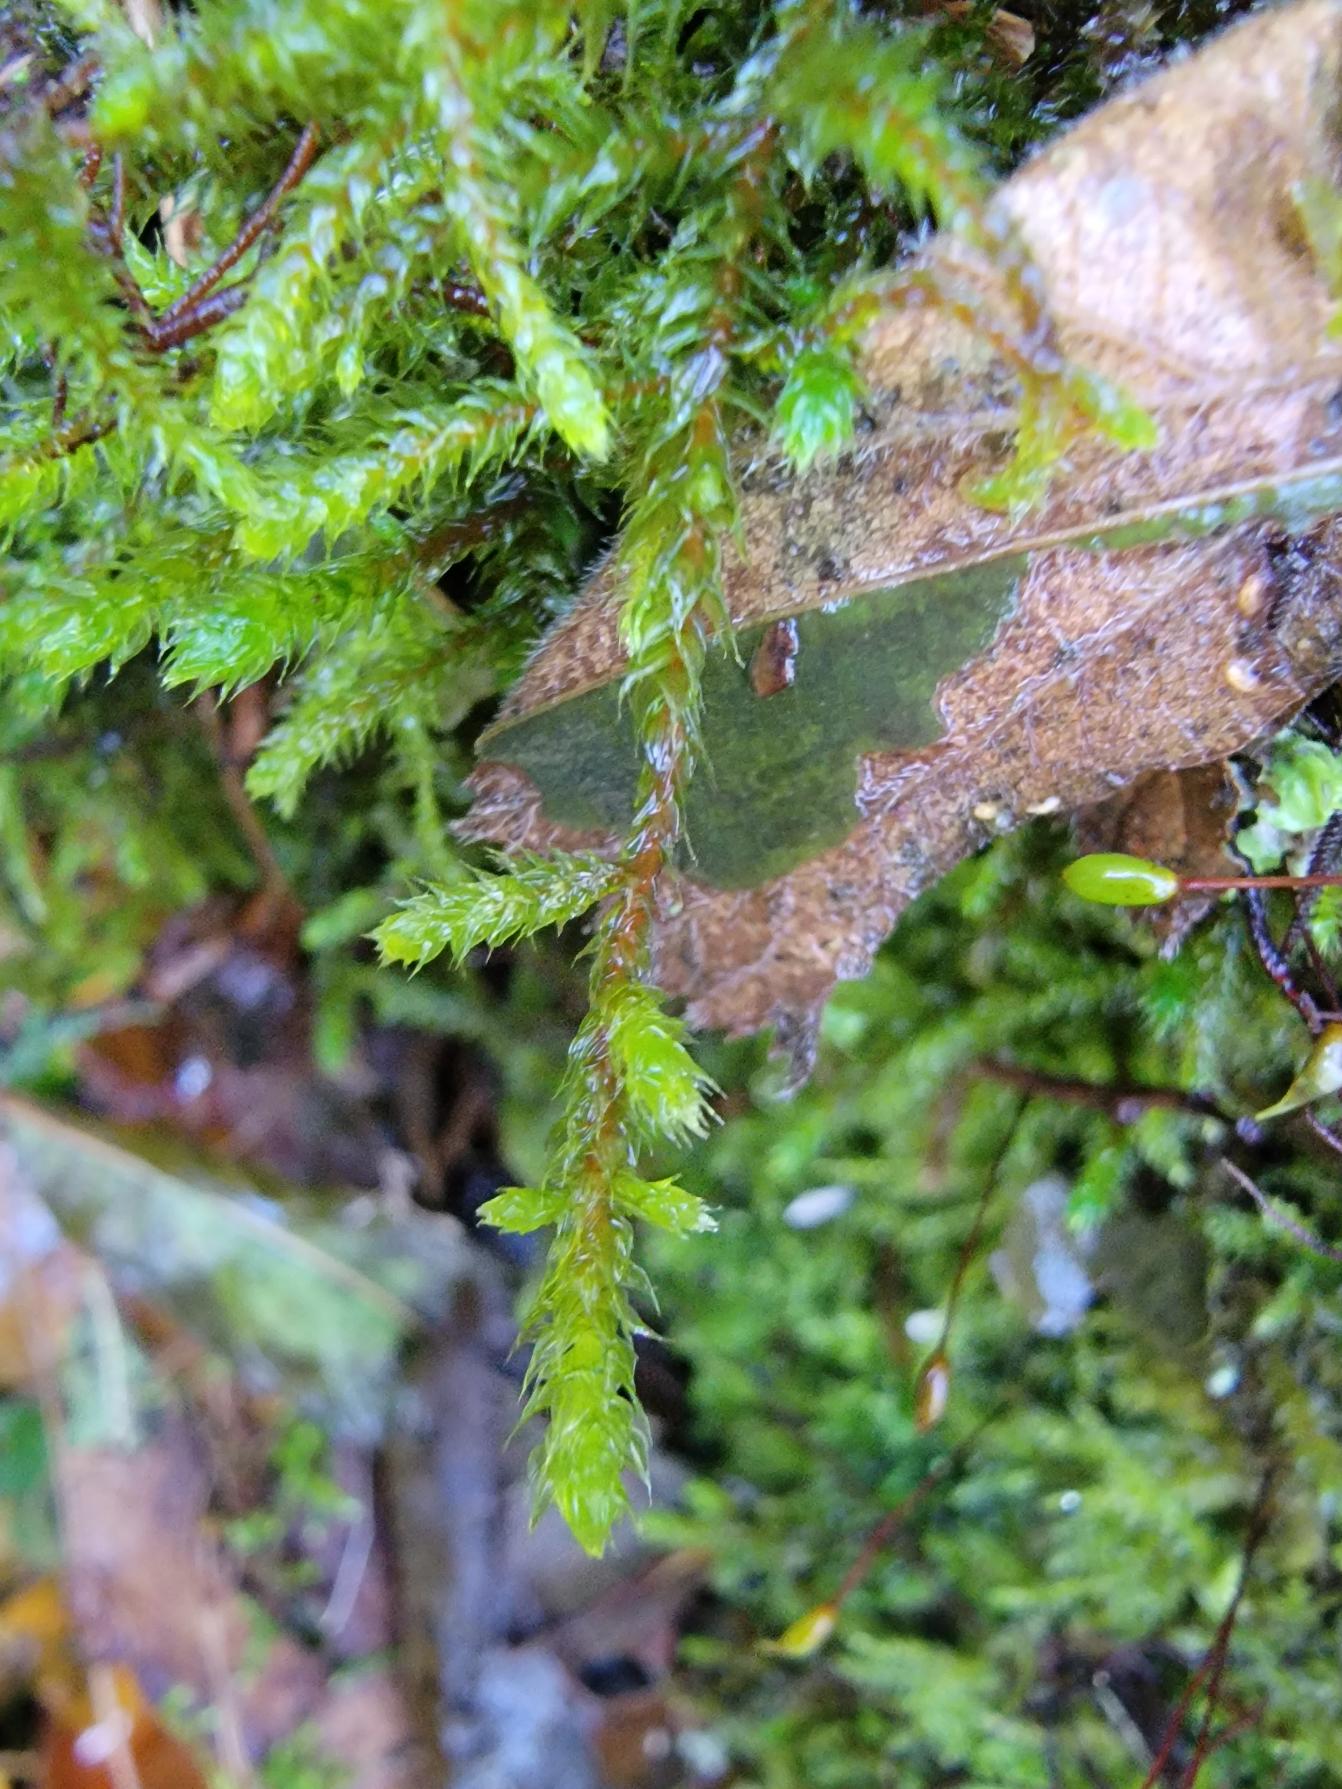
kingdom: Plantae
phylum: Bryophyta
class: Bryopsida
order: Hypnales
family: Antitrichiaceae
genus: Antitrichia
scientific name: Antitrichia curtipendula
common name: Åben krogtand
